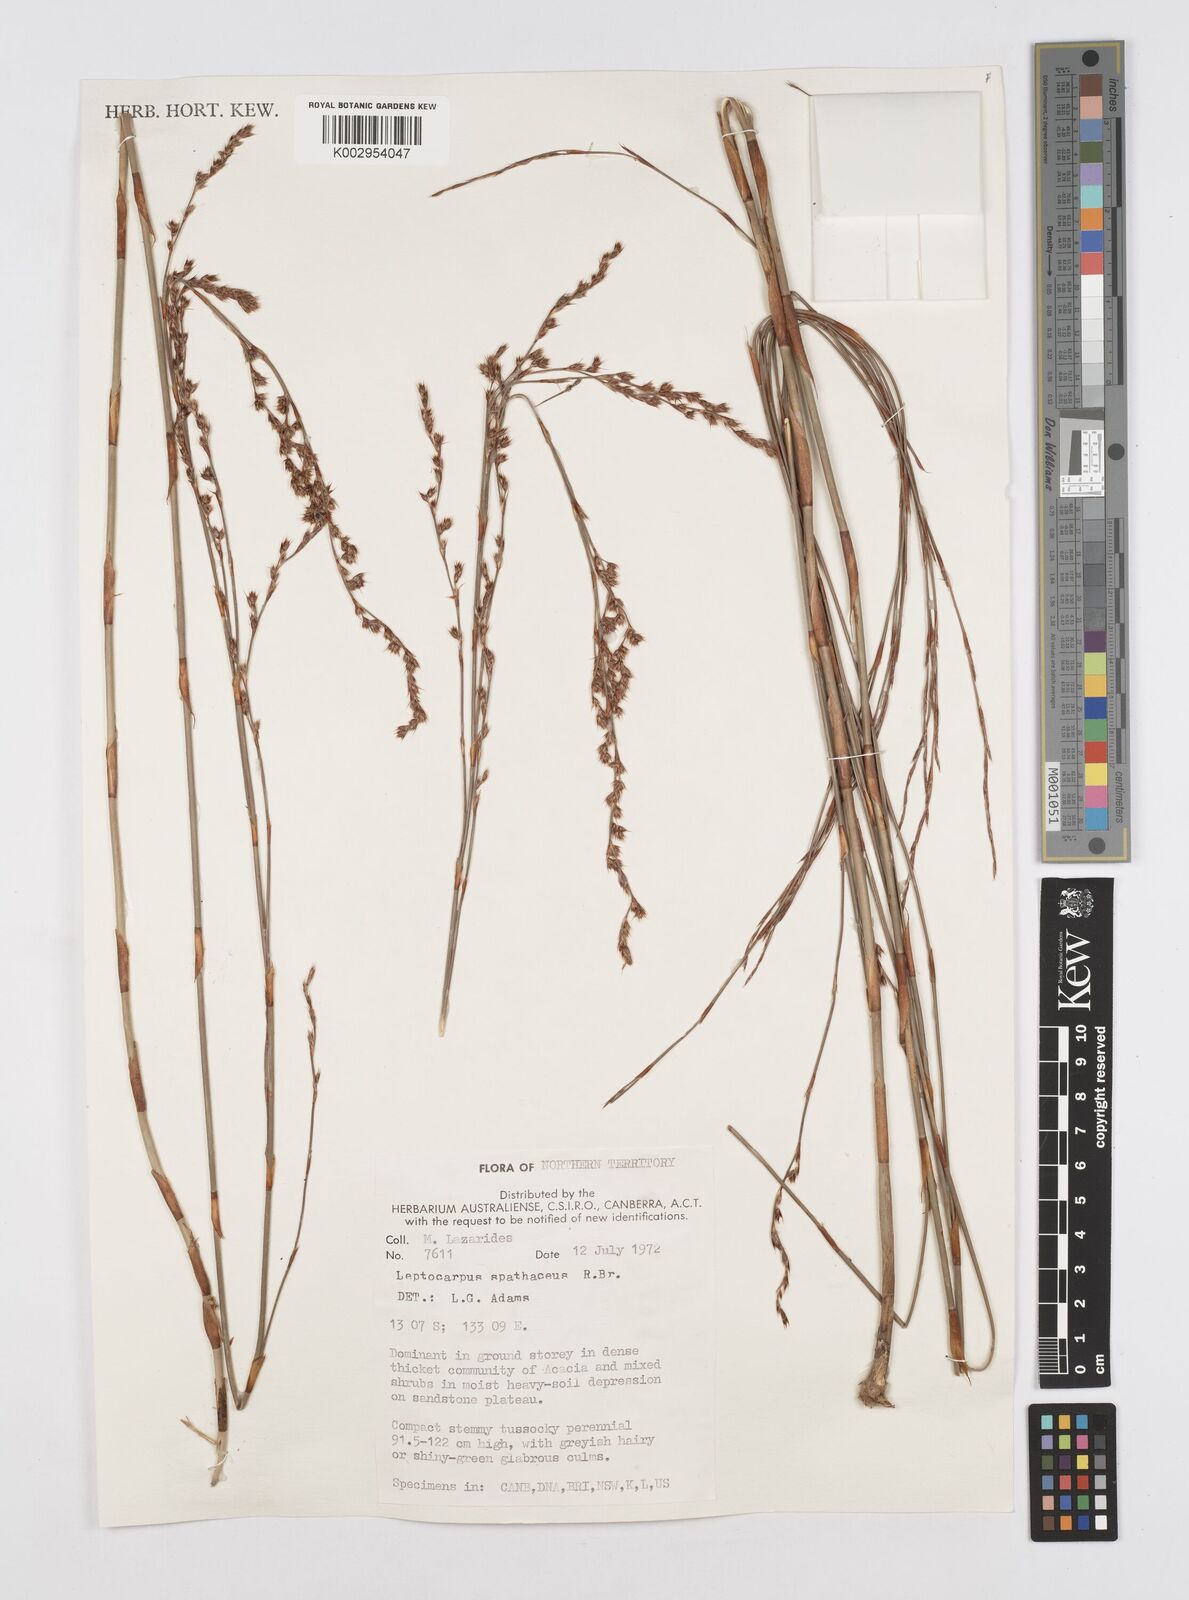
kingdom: Plantae
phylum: Tracheophyta
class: Liliopsida
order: Poales
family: Restionaceae
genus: Dapsilanthus
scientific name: Dapsilanthus spathaceus
